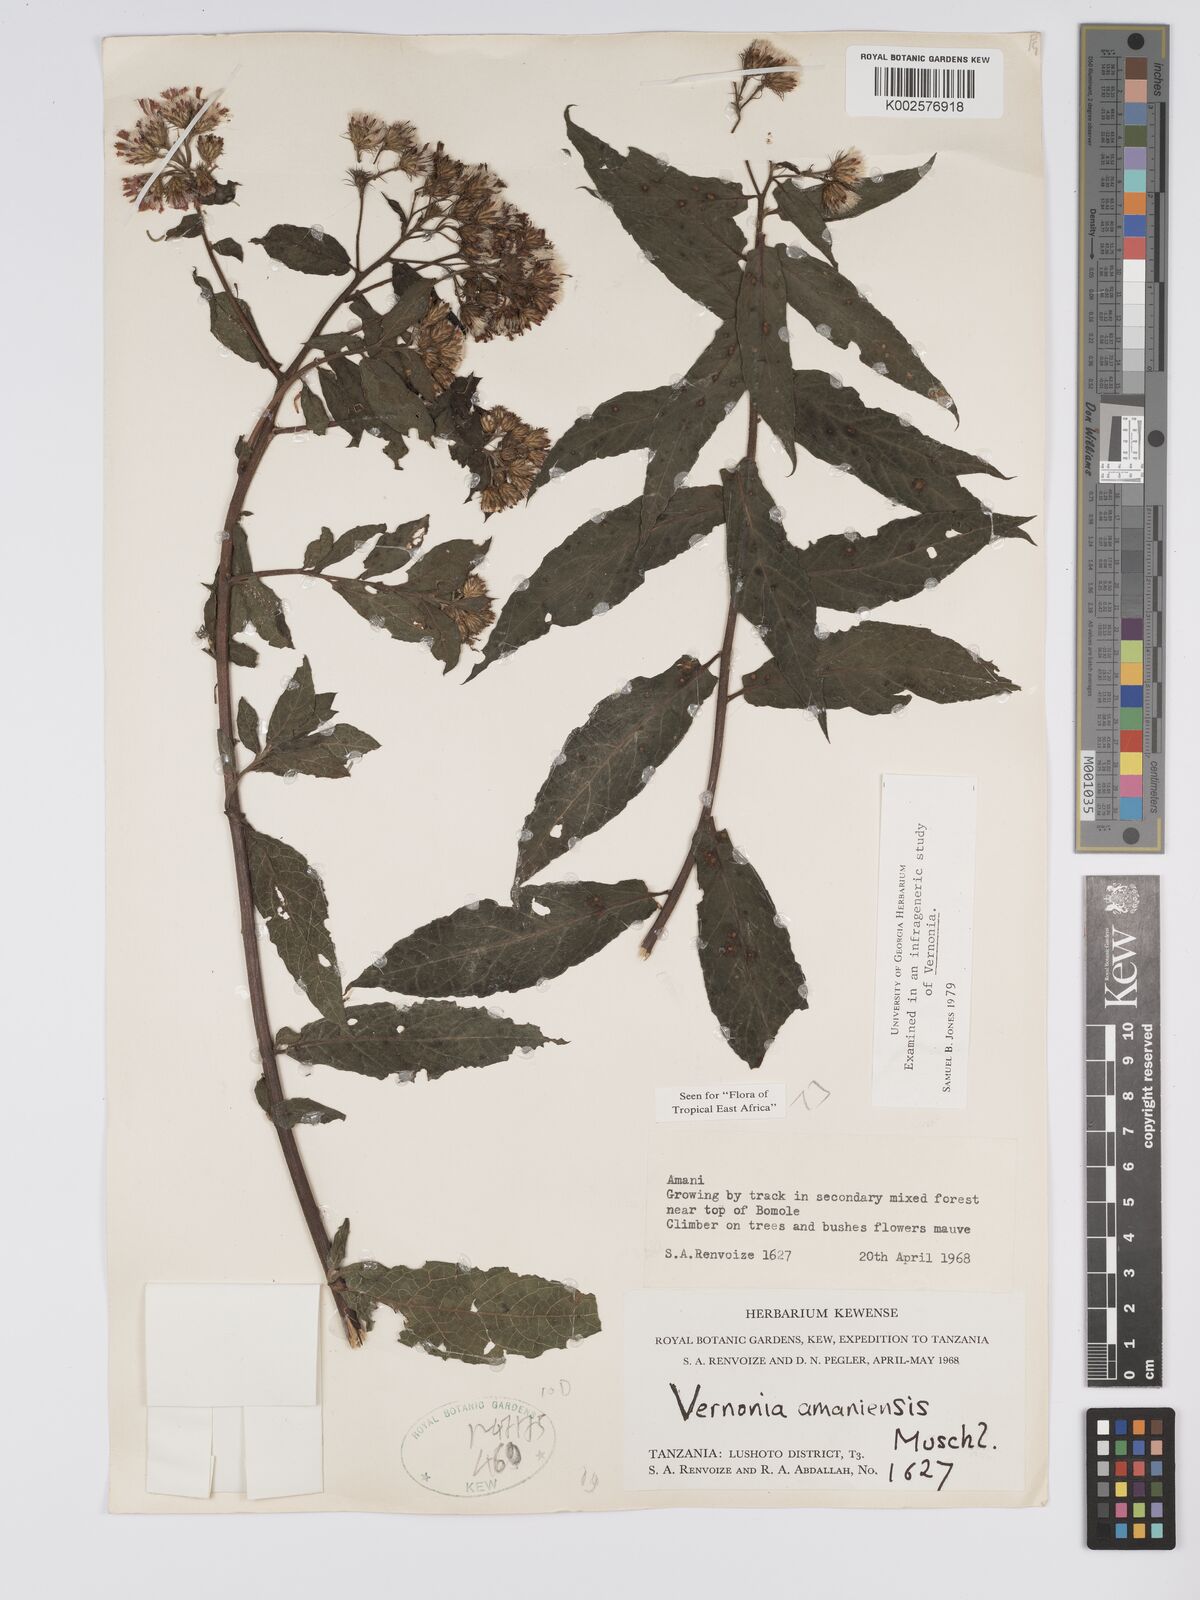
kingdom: Plantae
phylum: Tracheophyta
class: Magnoliopsida
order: Asterales
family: Asteraceae
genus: Jeffreycia
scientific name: Jeffreycia amaniensis
